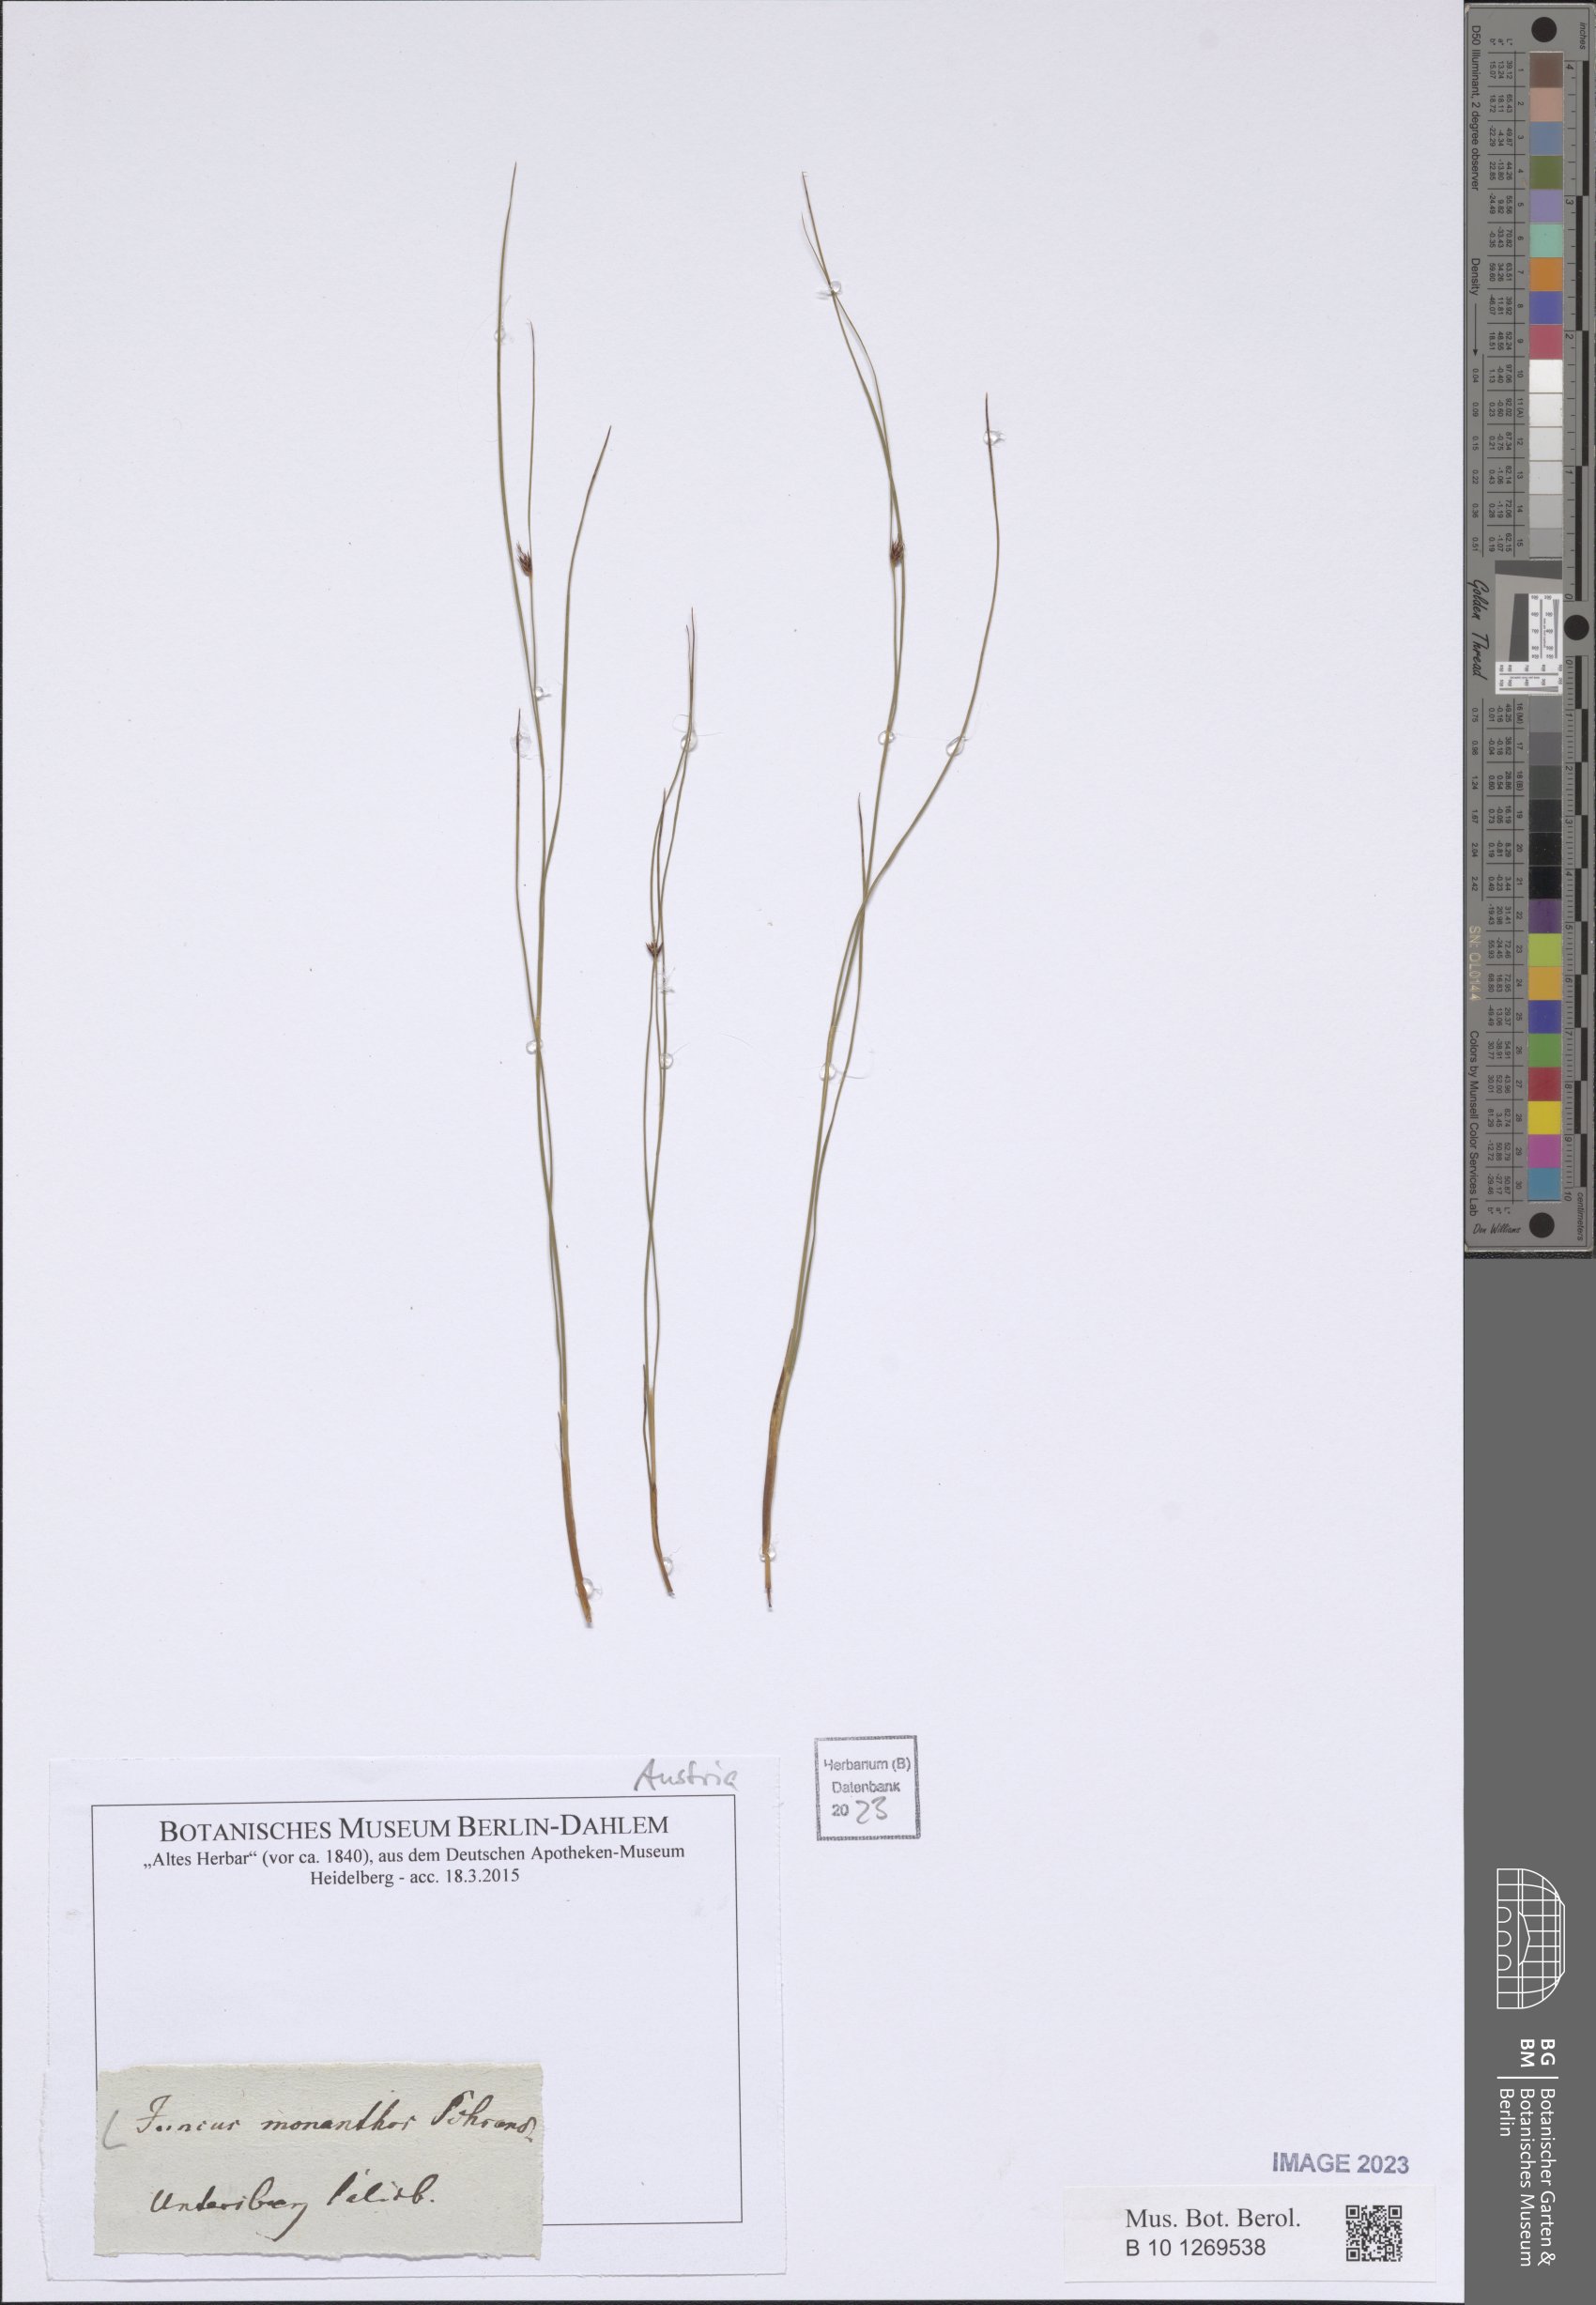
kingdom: Plantae
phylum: Tracheophyta
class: Liliopsida
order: Poales
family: Juncaceae
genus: Oreojuncus
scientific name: Oreojuncus monanthos
